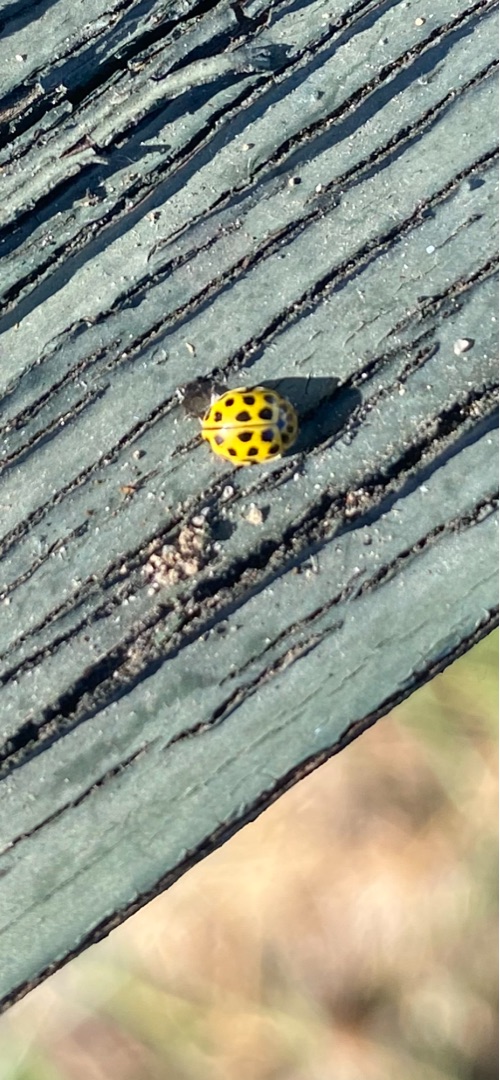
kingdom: Animalia
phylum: Arthropoda
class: Insecta
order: Coleoptera
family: Coccinellidae
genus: Psyllobora
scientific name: Psyllobora vigintiduopunctata
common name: Toogtyveplettet mariehøne
